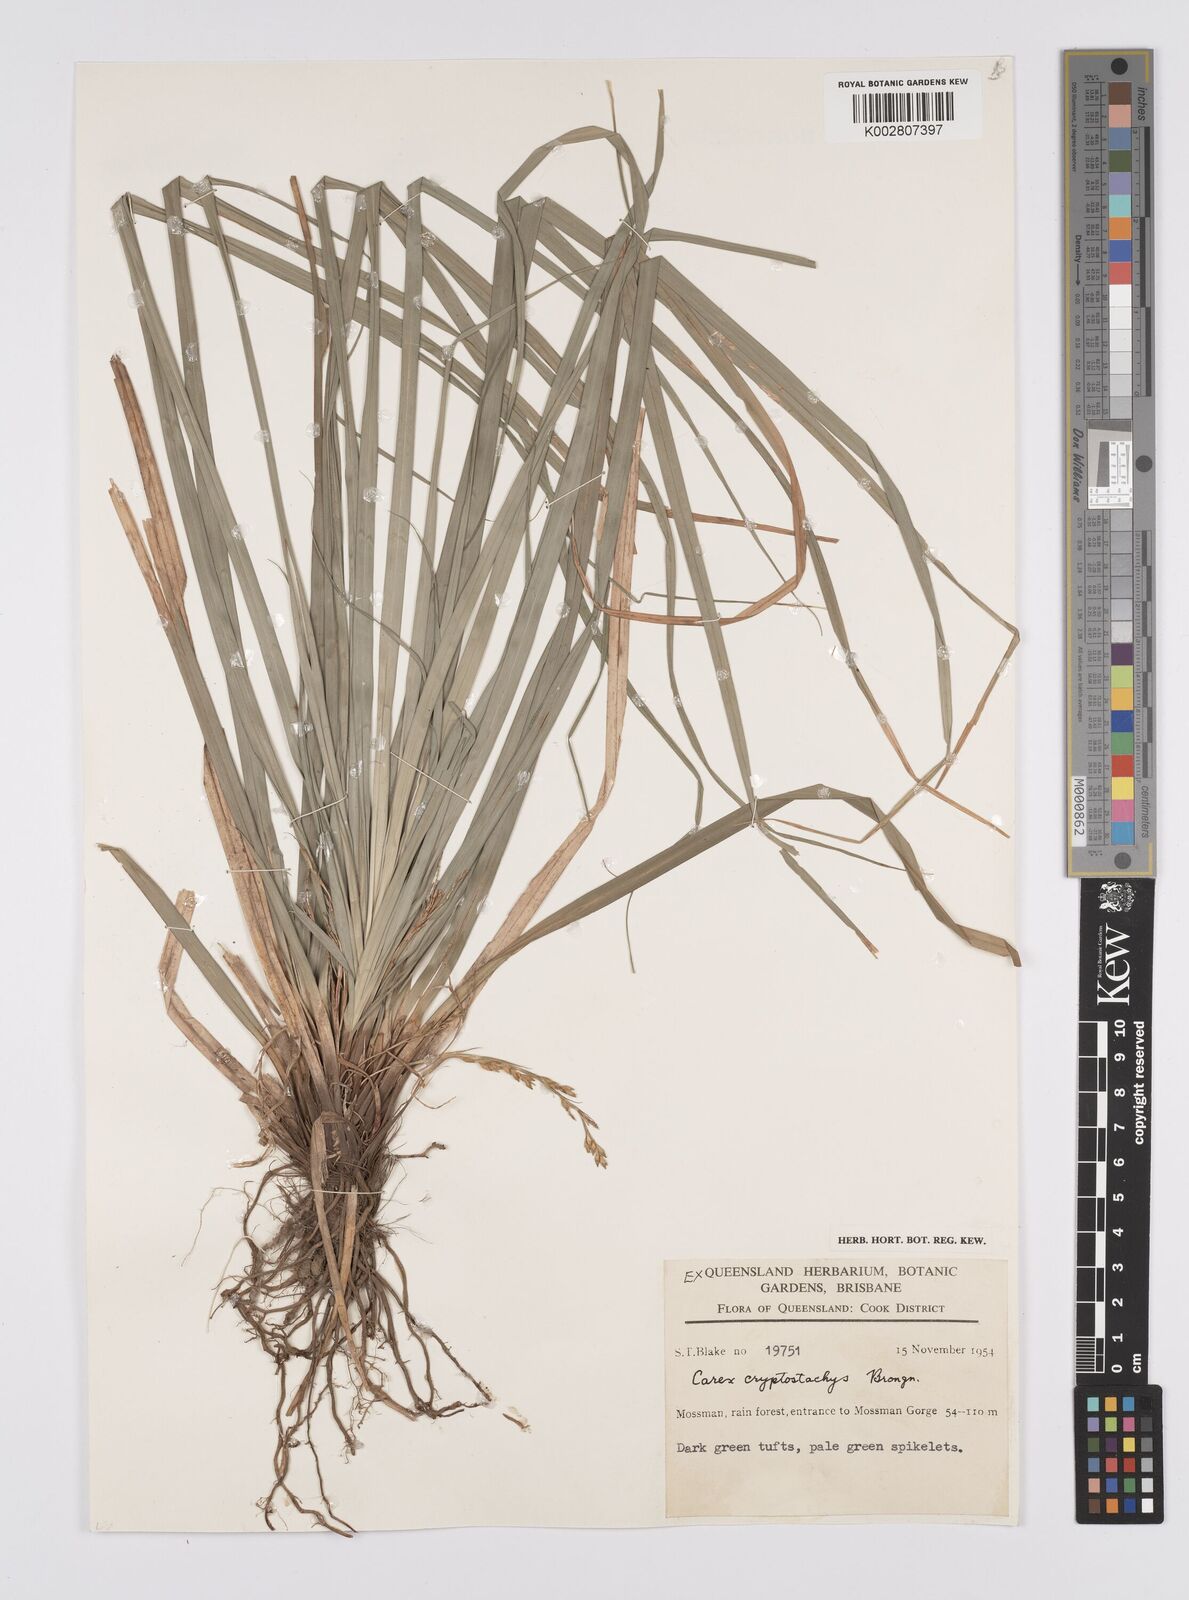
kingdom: Plantae
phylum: Tracheophyta
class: Liliopsida
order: Poales
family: Cyperaceae
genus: Carex
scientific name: Carex cryptostachys
